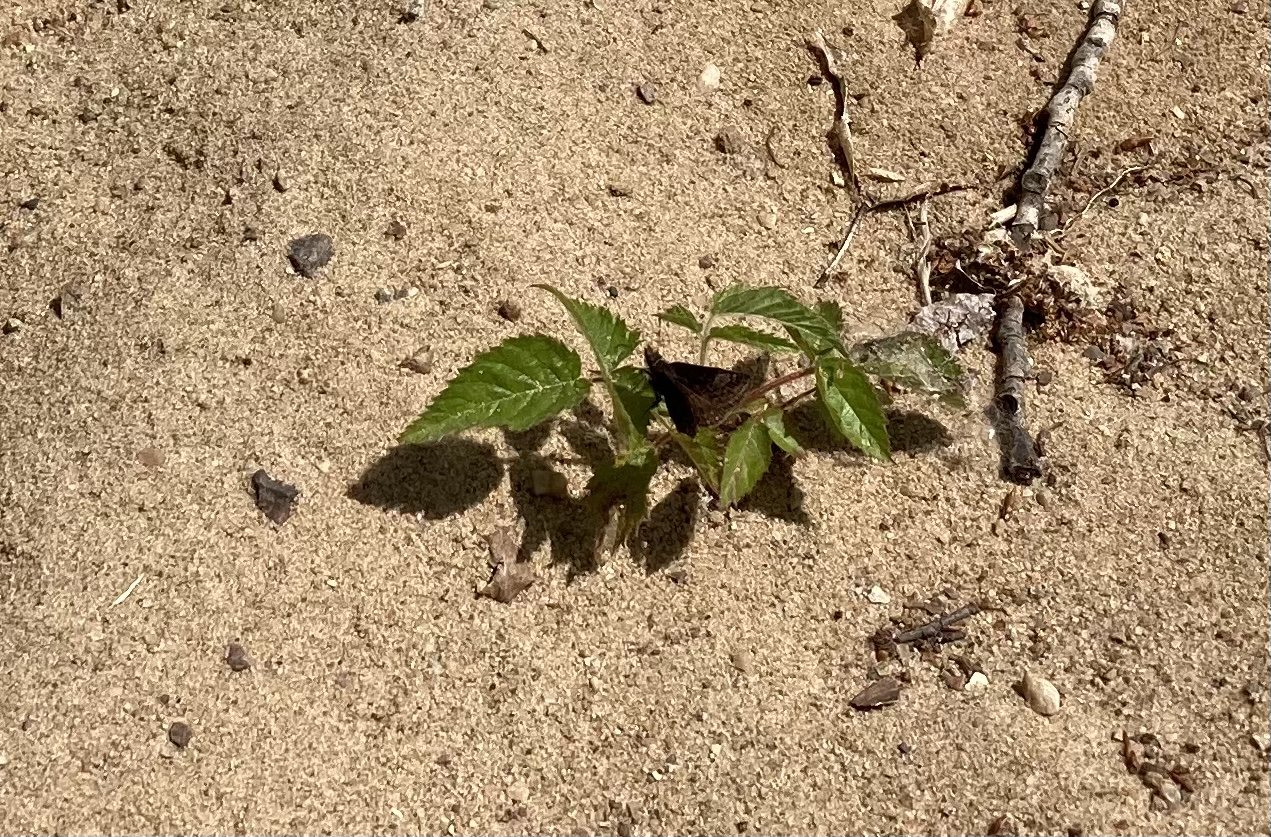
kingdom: Animalia
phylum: Arthropoda
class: Insecta
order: Lepidoptera
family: Hesperiidae
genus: Erynnis
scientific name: Erynnis icelus
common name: Dreamy Duskywing
